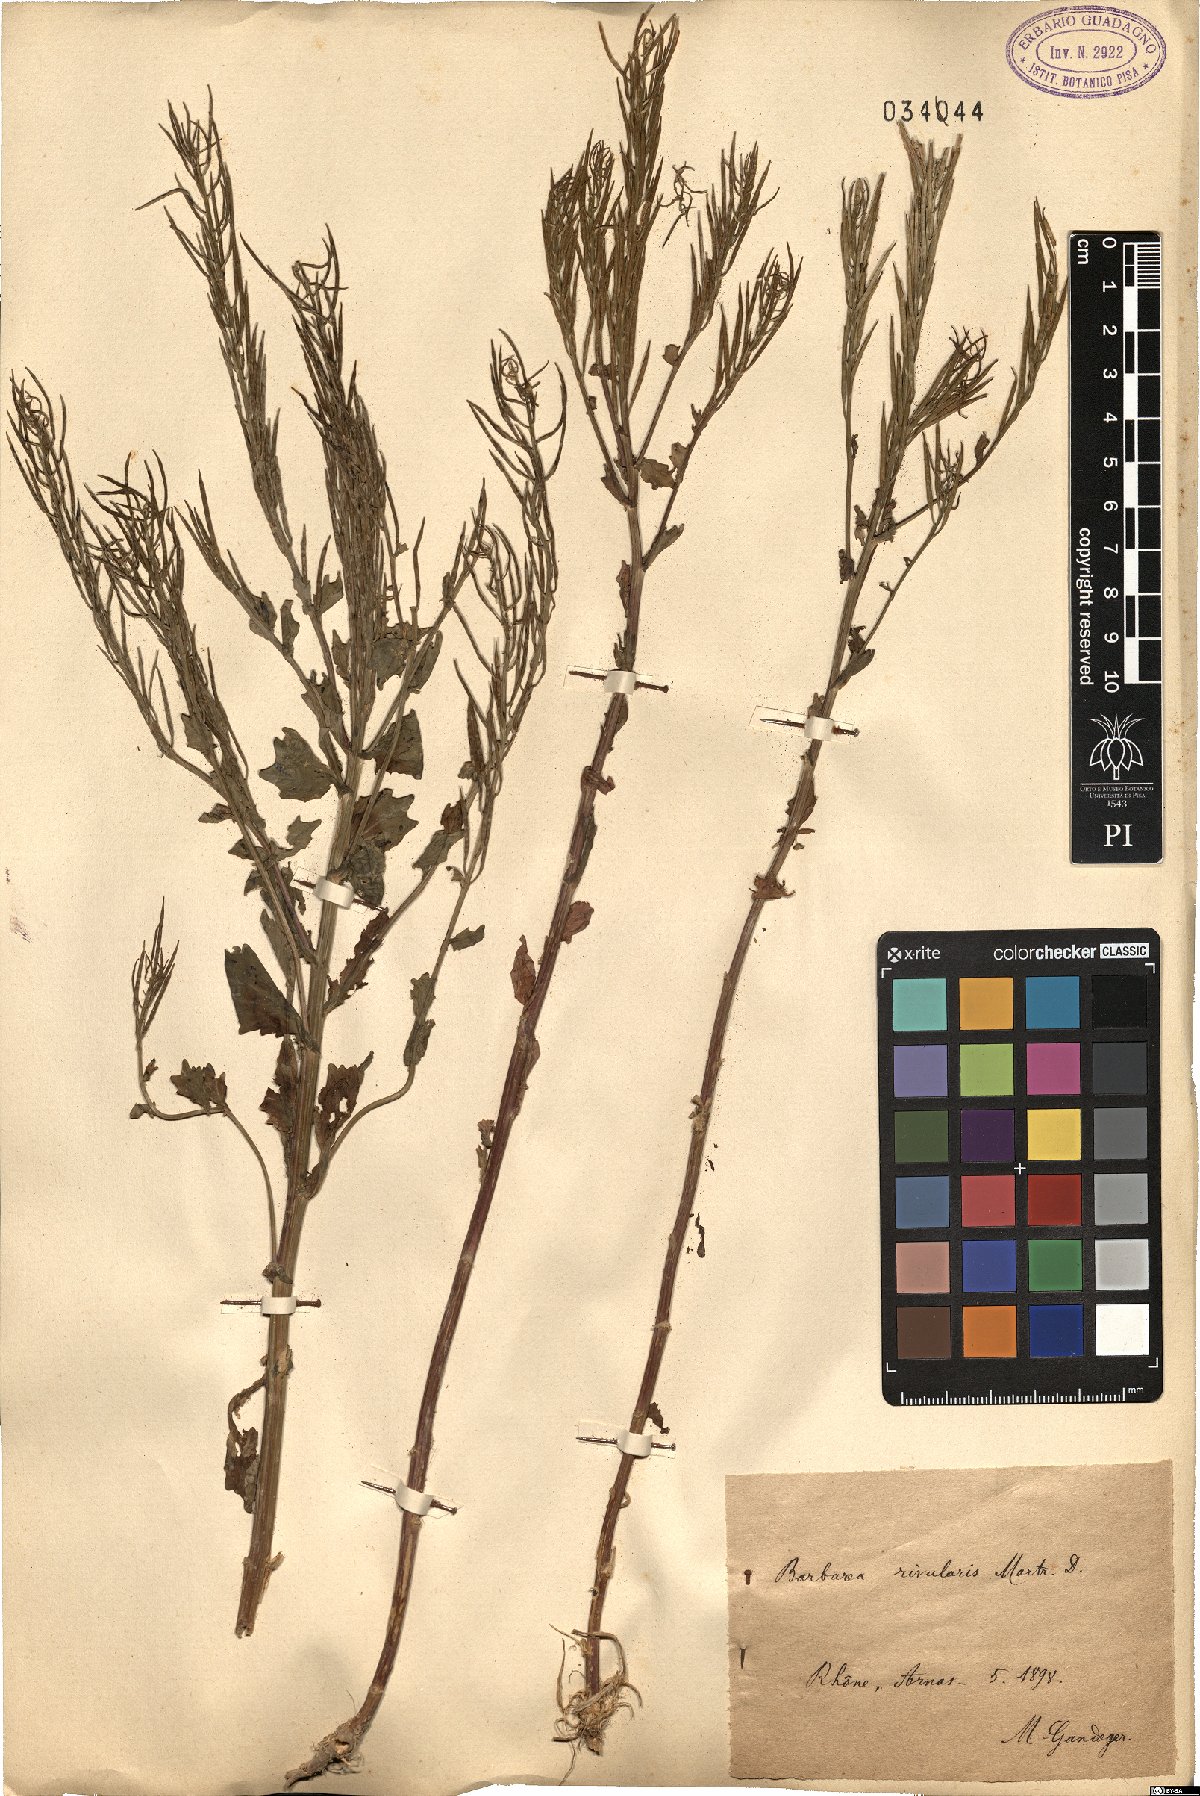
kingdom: Plantae
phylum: Tracheophyta
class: Magnoliopsida
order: Brassicales
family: Brassicaceae
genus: Barbarea
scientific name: Barbarea vulgaris
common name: Cressy-greens
